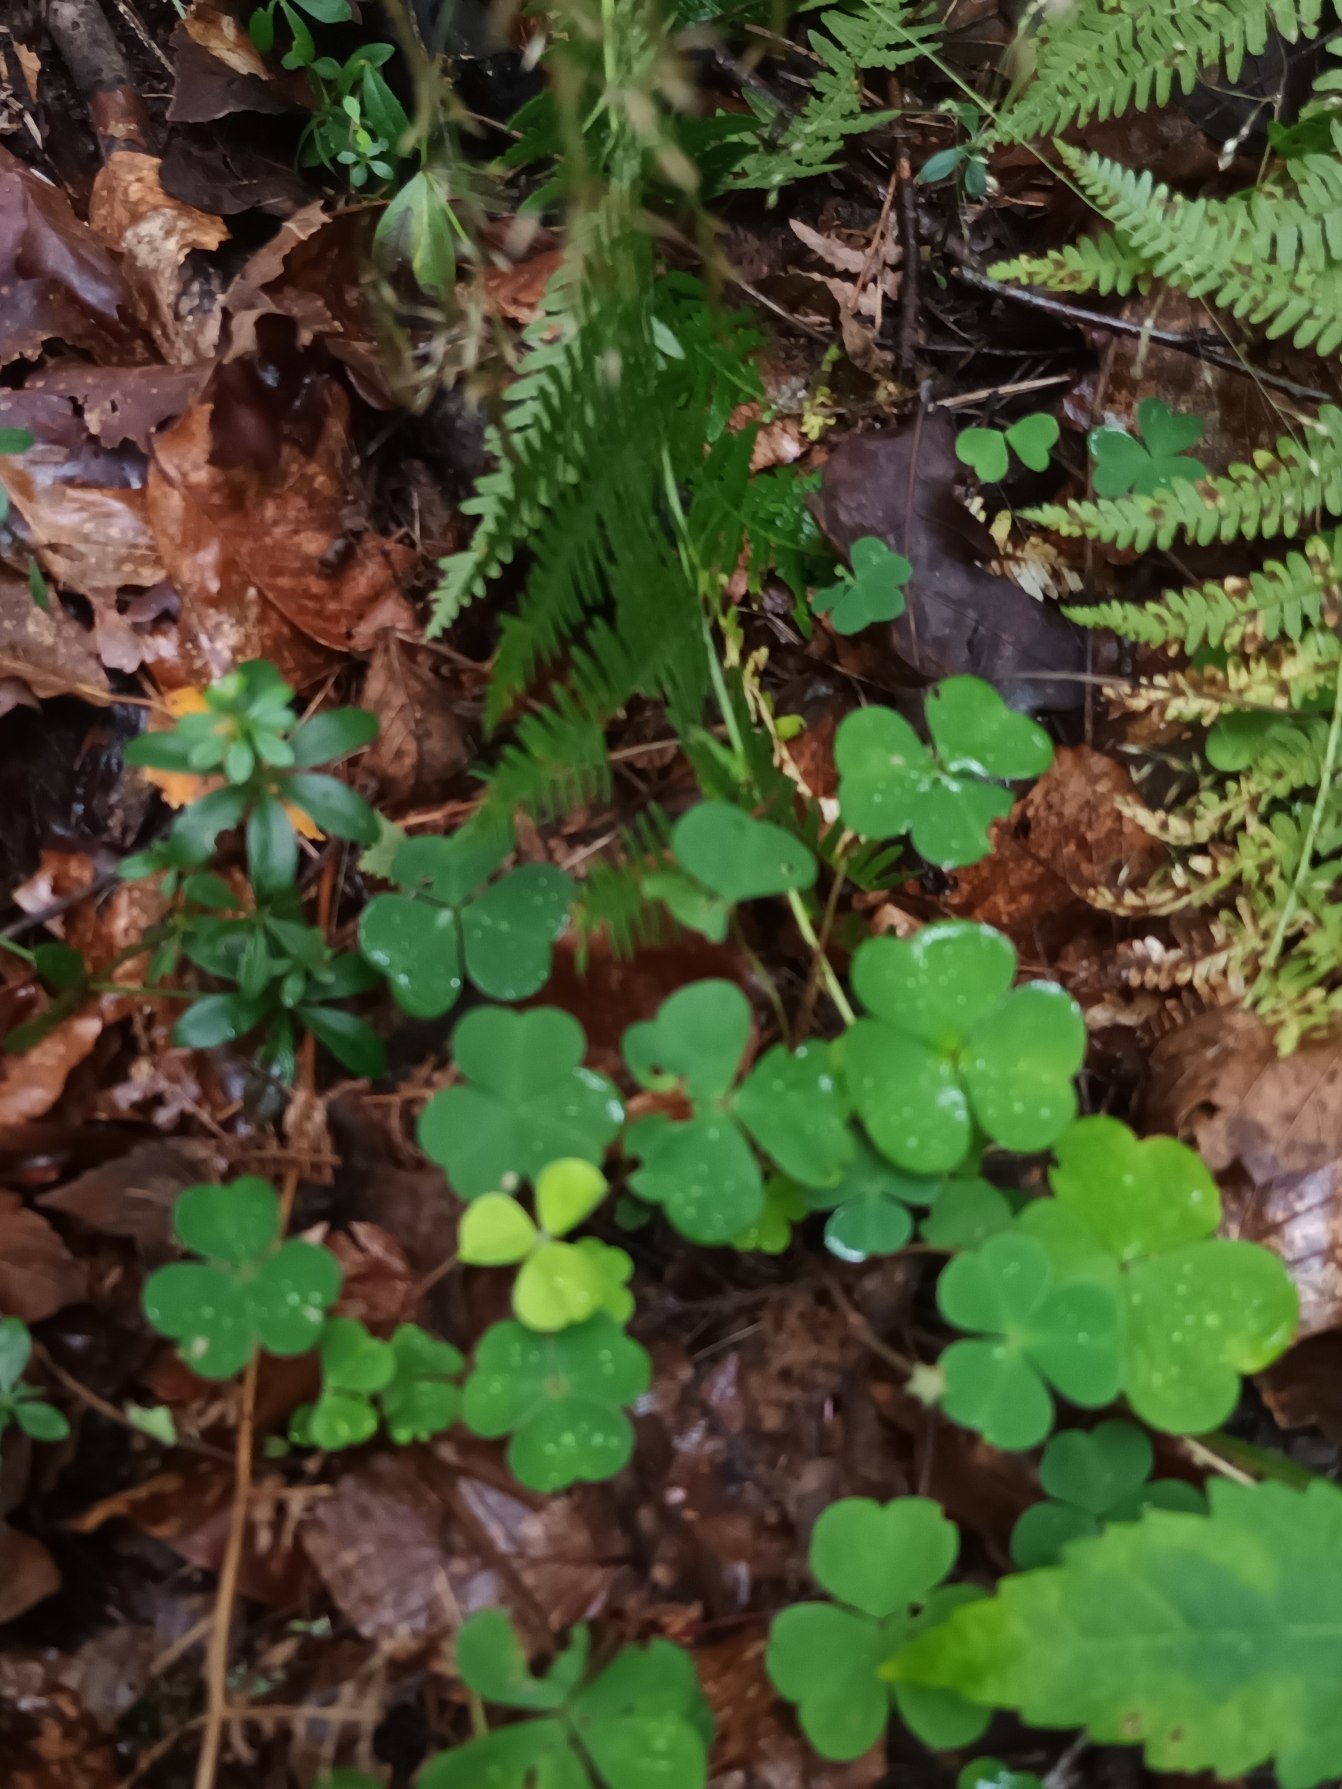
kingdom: Plantae
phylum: Tracheophyta
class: Magnoliopsida
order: Oxalidales
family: Oxalidaceae
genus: Oxalis
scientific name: Oxalis acetosella
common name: Skovsyre
